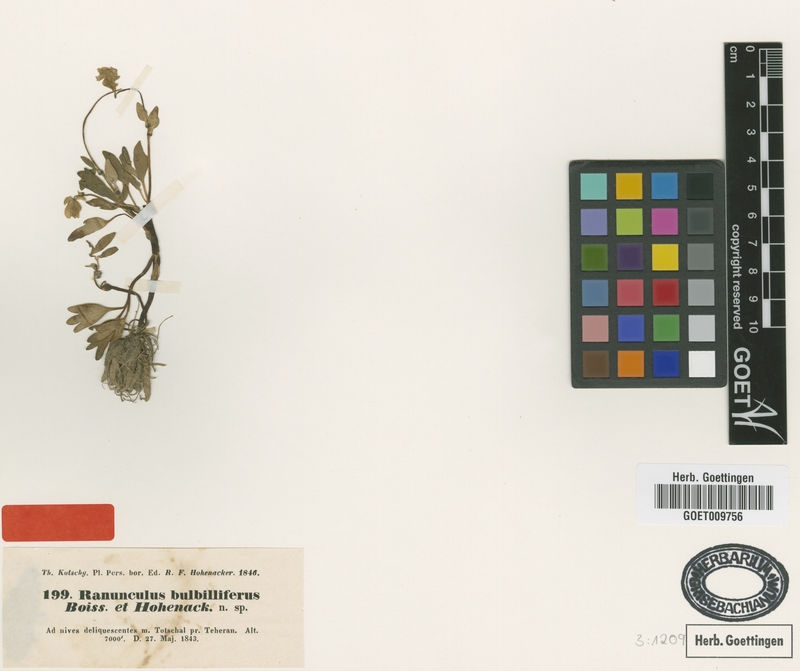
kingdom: Plantae
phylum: Tracheophyta
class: Magnoliopsida
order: Ranunculales
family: Ranunculaceae
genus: Ranunculus
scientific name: Ranunculus bulbilliferus
